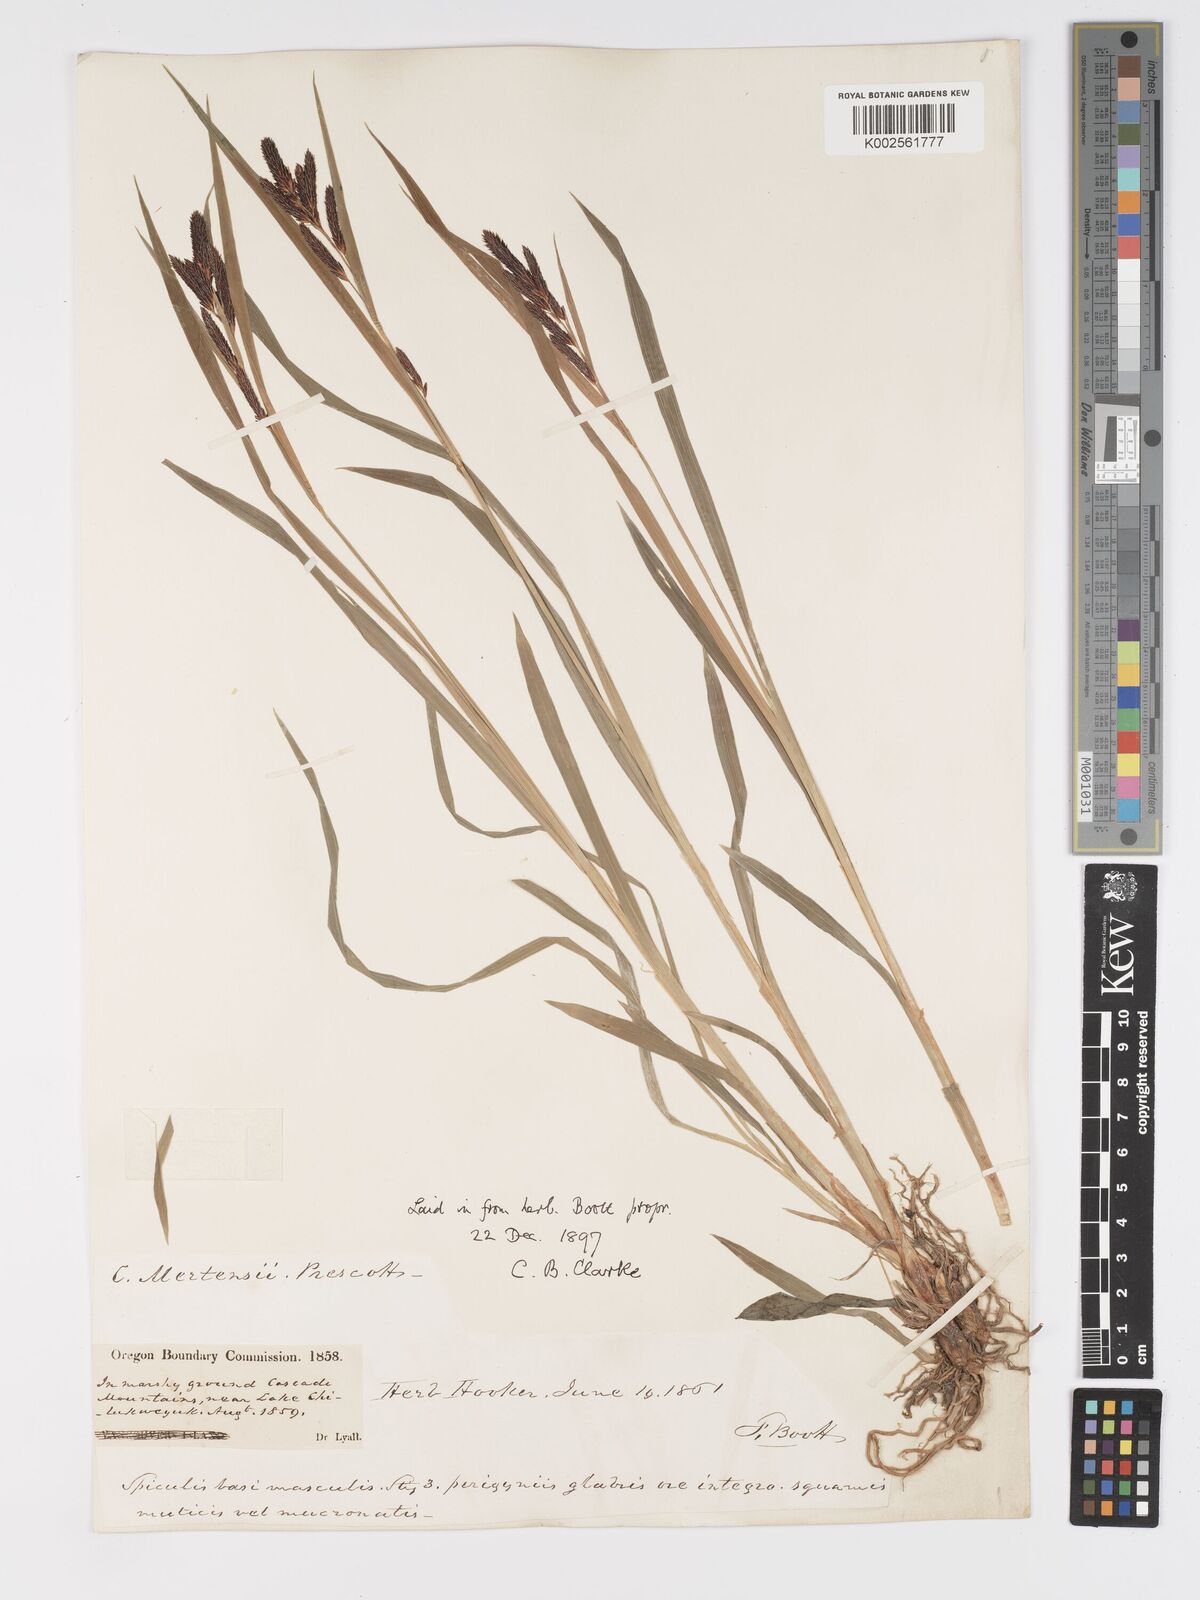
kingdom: Plantae
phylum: Tracheophyta
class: Liliopsida
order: Poales
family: Cyperaceae
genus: Carex
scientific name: Carex mertensii
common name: Mertens' sedge
